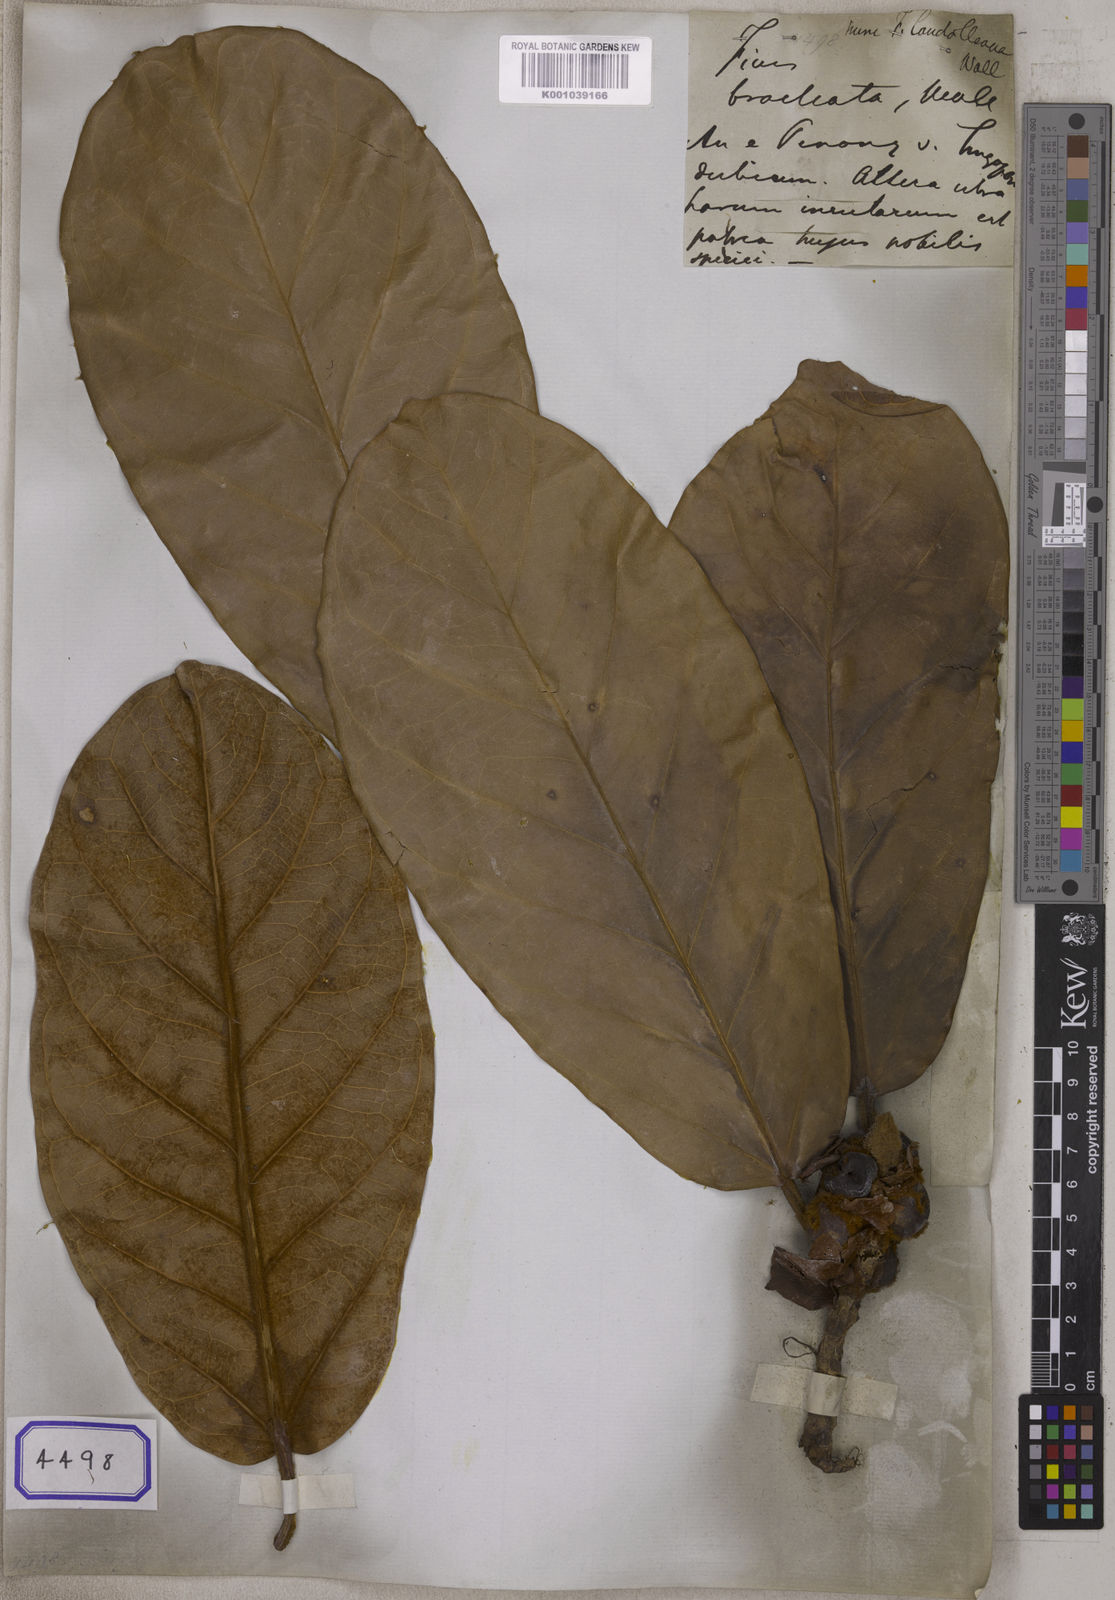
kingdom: Plantae
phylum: Tracheophyta
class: Magnoliopsida
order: Rosales
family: Moraceae
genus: Ficus
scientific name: Ficus
